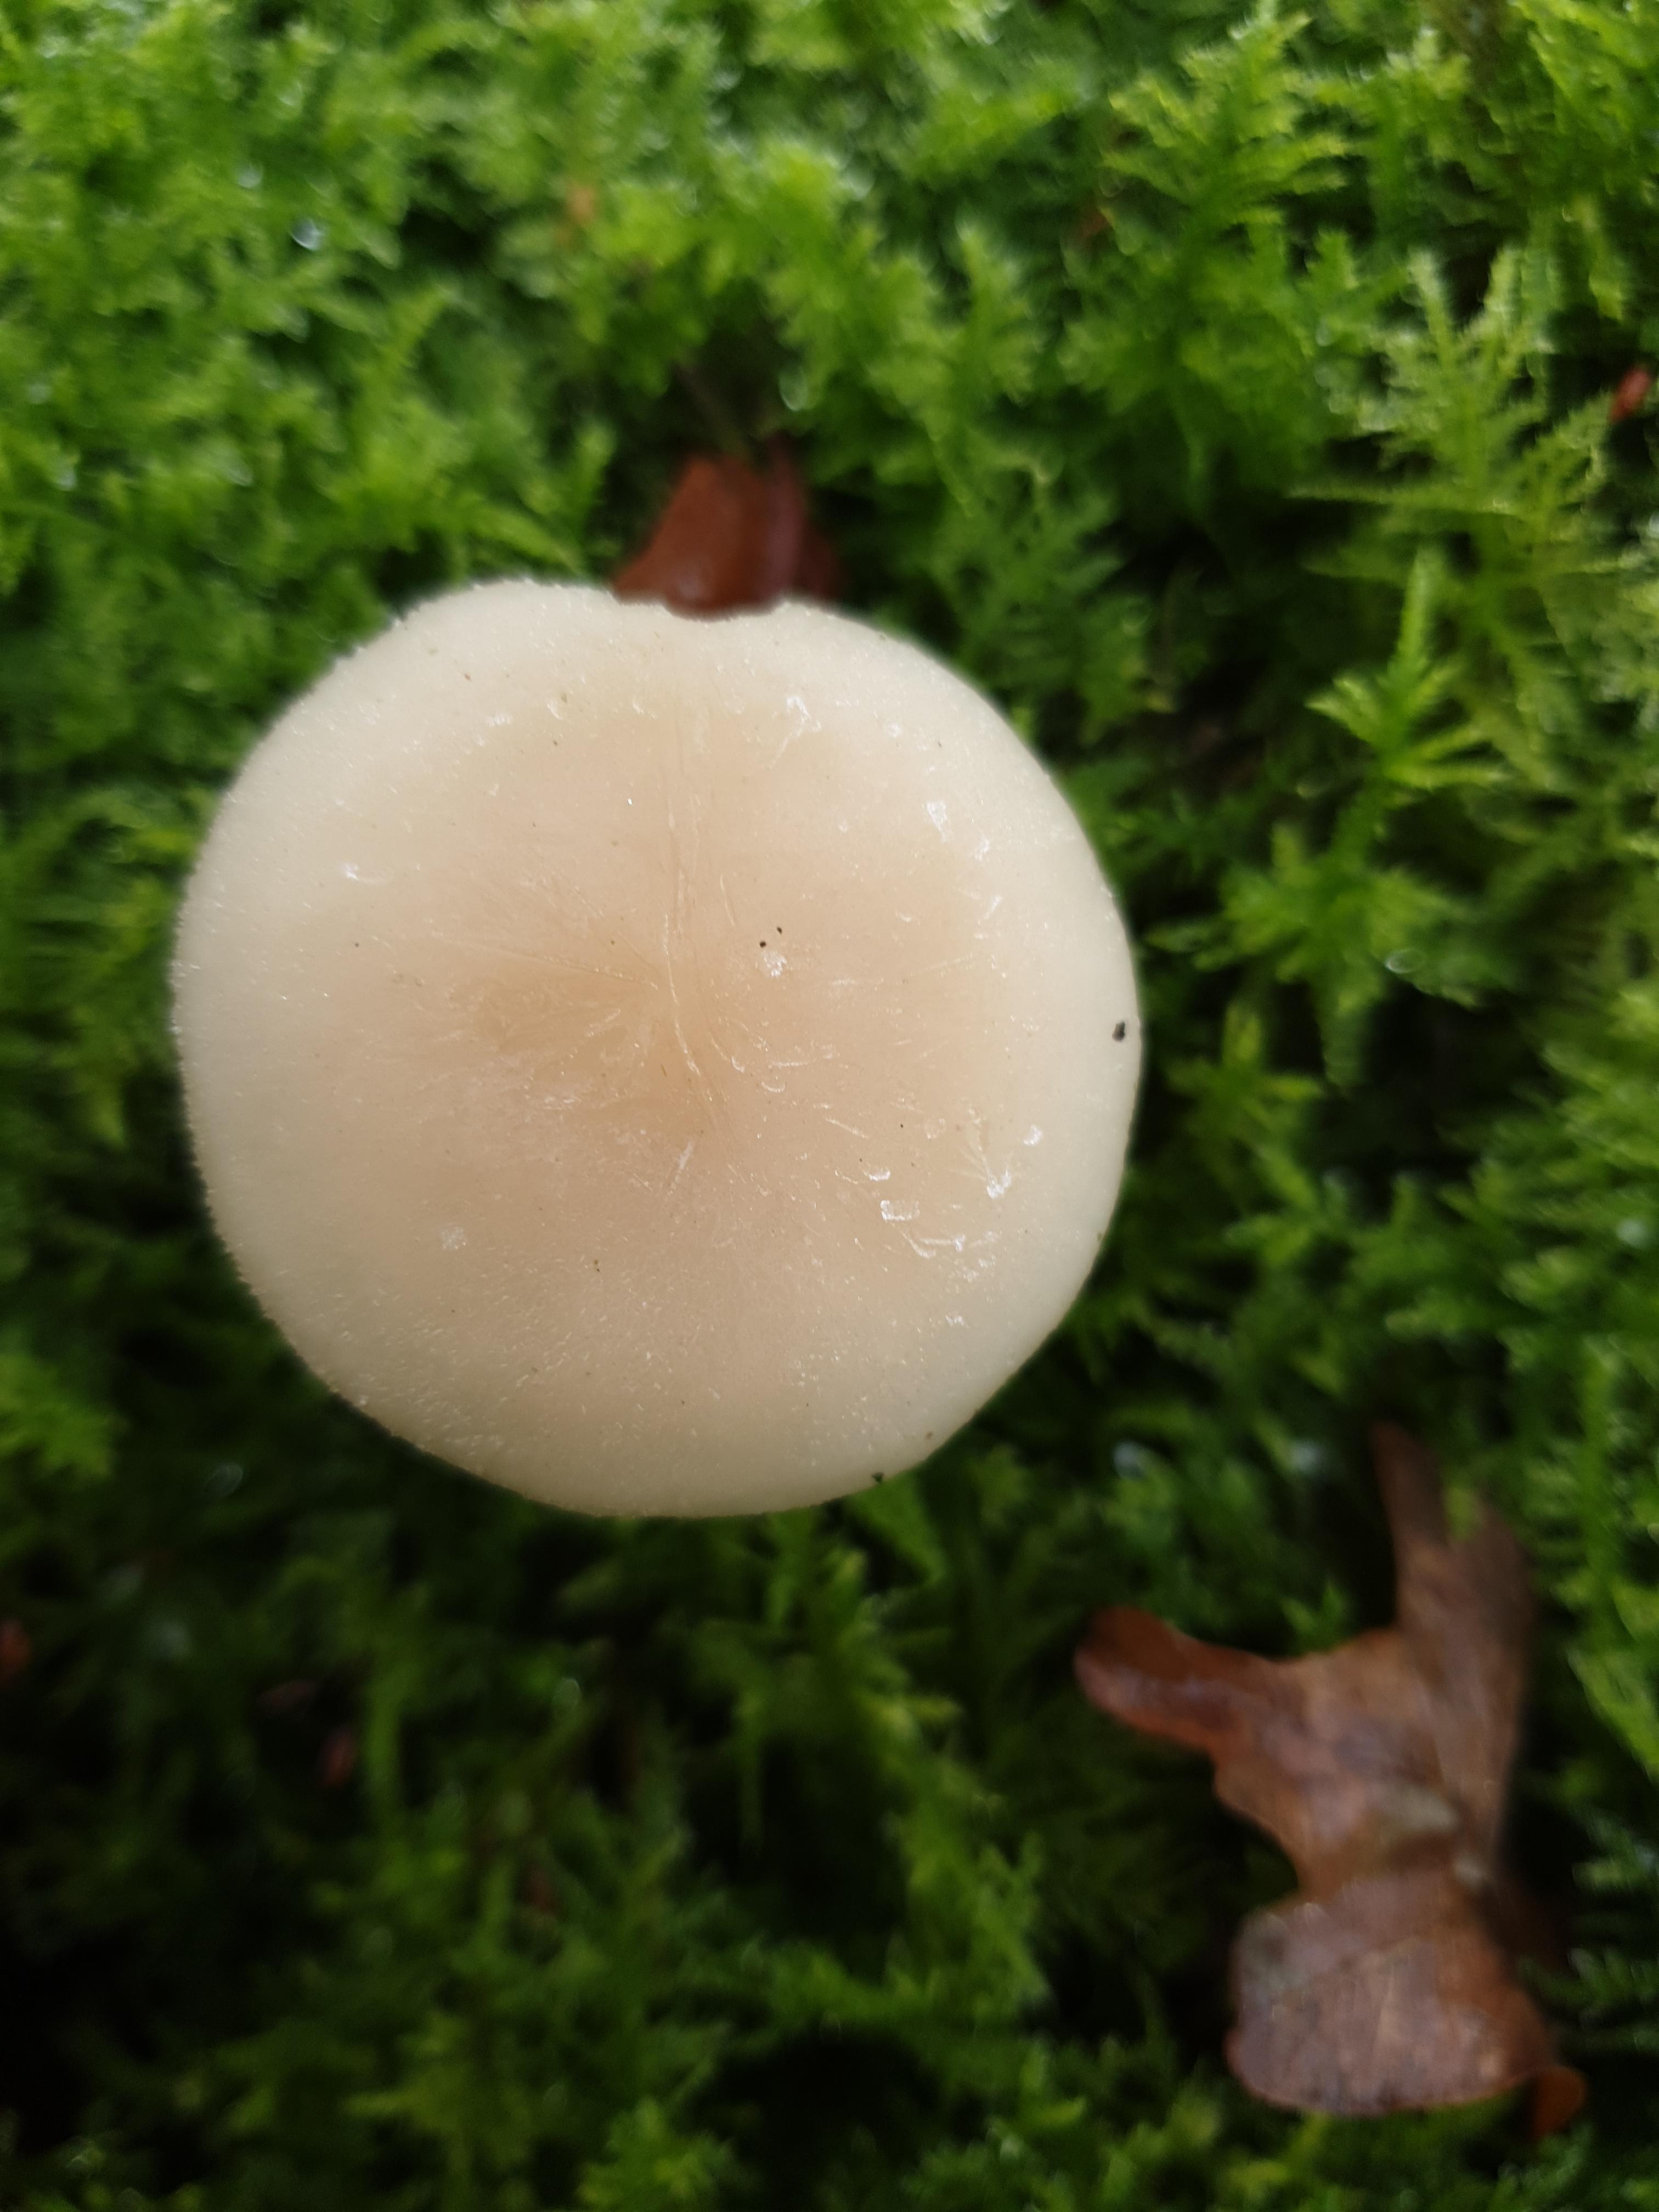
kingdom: Fungi
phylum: Basidiomycota
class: Agaricomycetes
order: Agaricales
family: Tricholomataceae
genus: Clitocybe
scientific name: Clitocybe fragrans
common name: vellugtende tragthat
